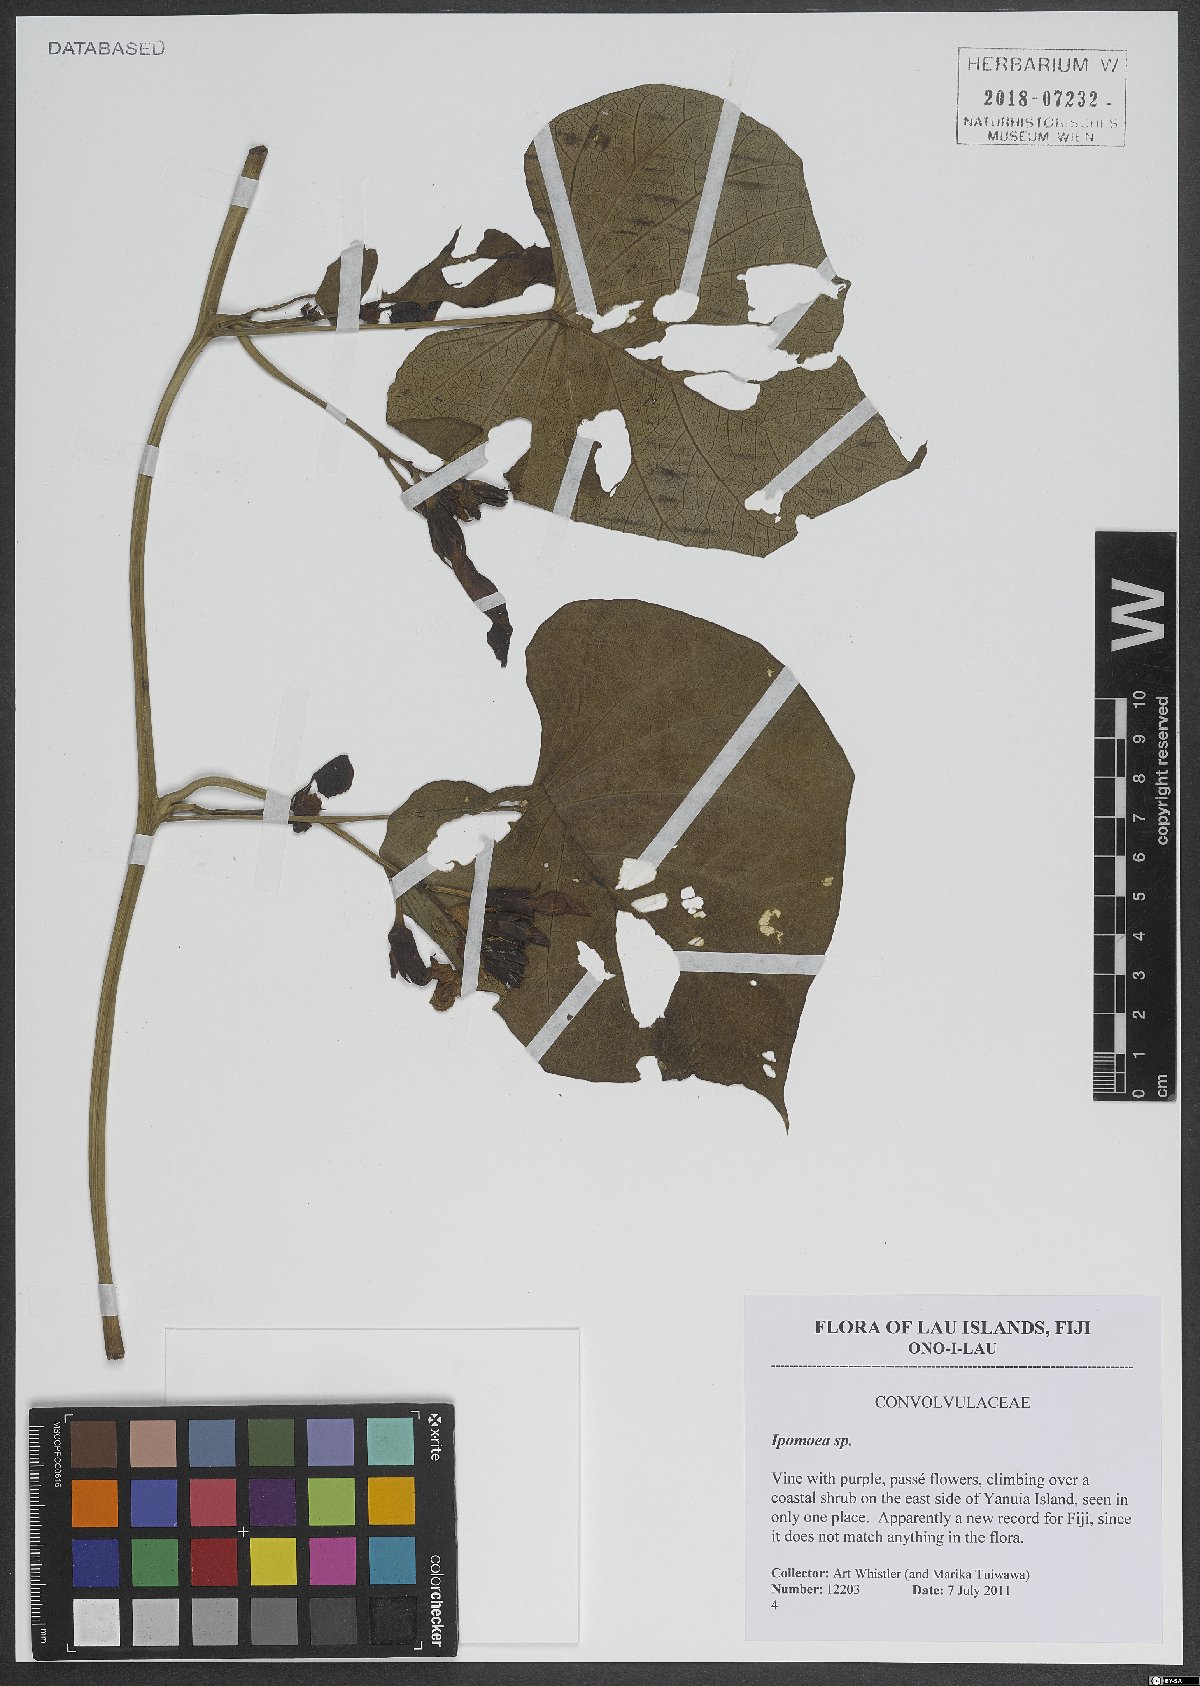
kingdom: Plantae
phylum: Tracheophyta
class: Magnoliopsida
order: Solanales
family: Convolvulaceae
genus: Ipomoea
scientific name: Ipomoea
